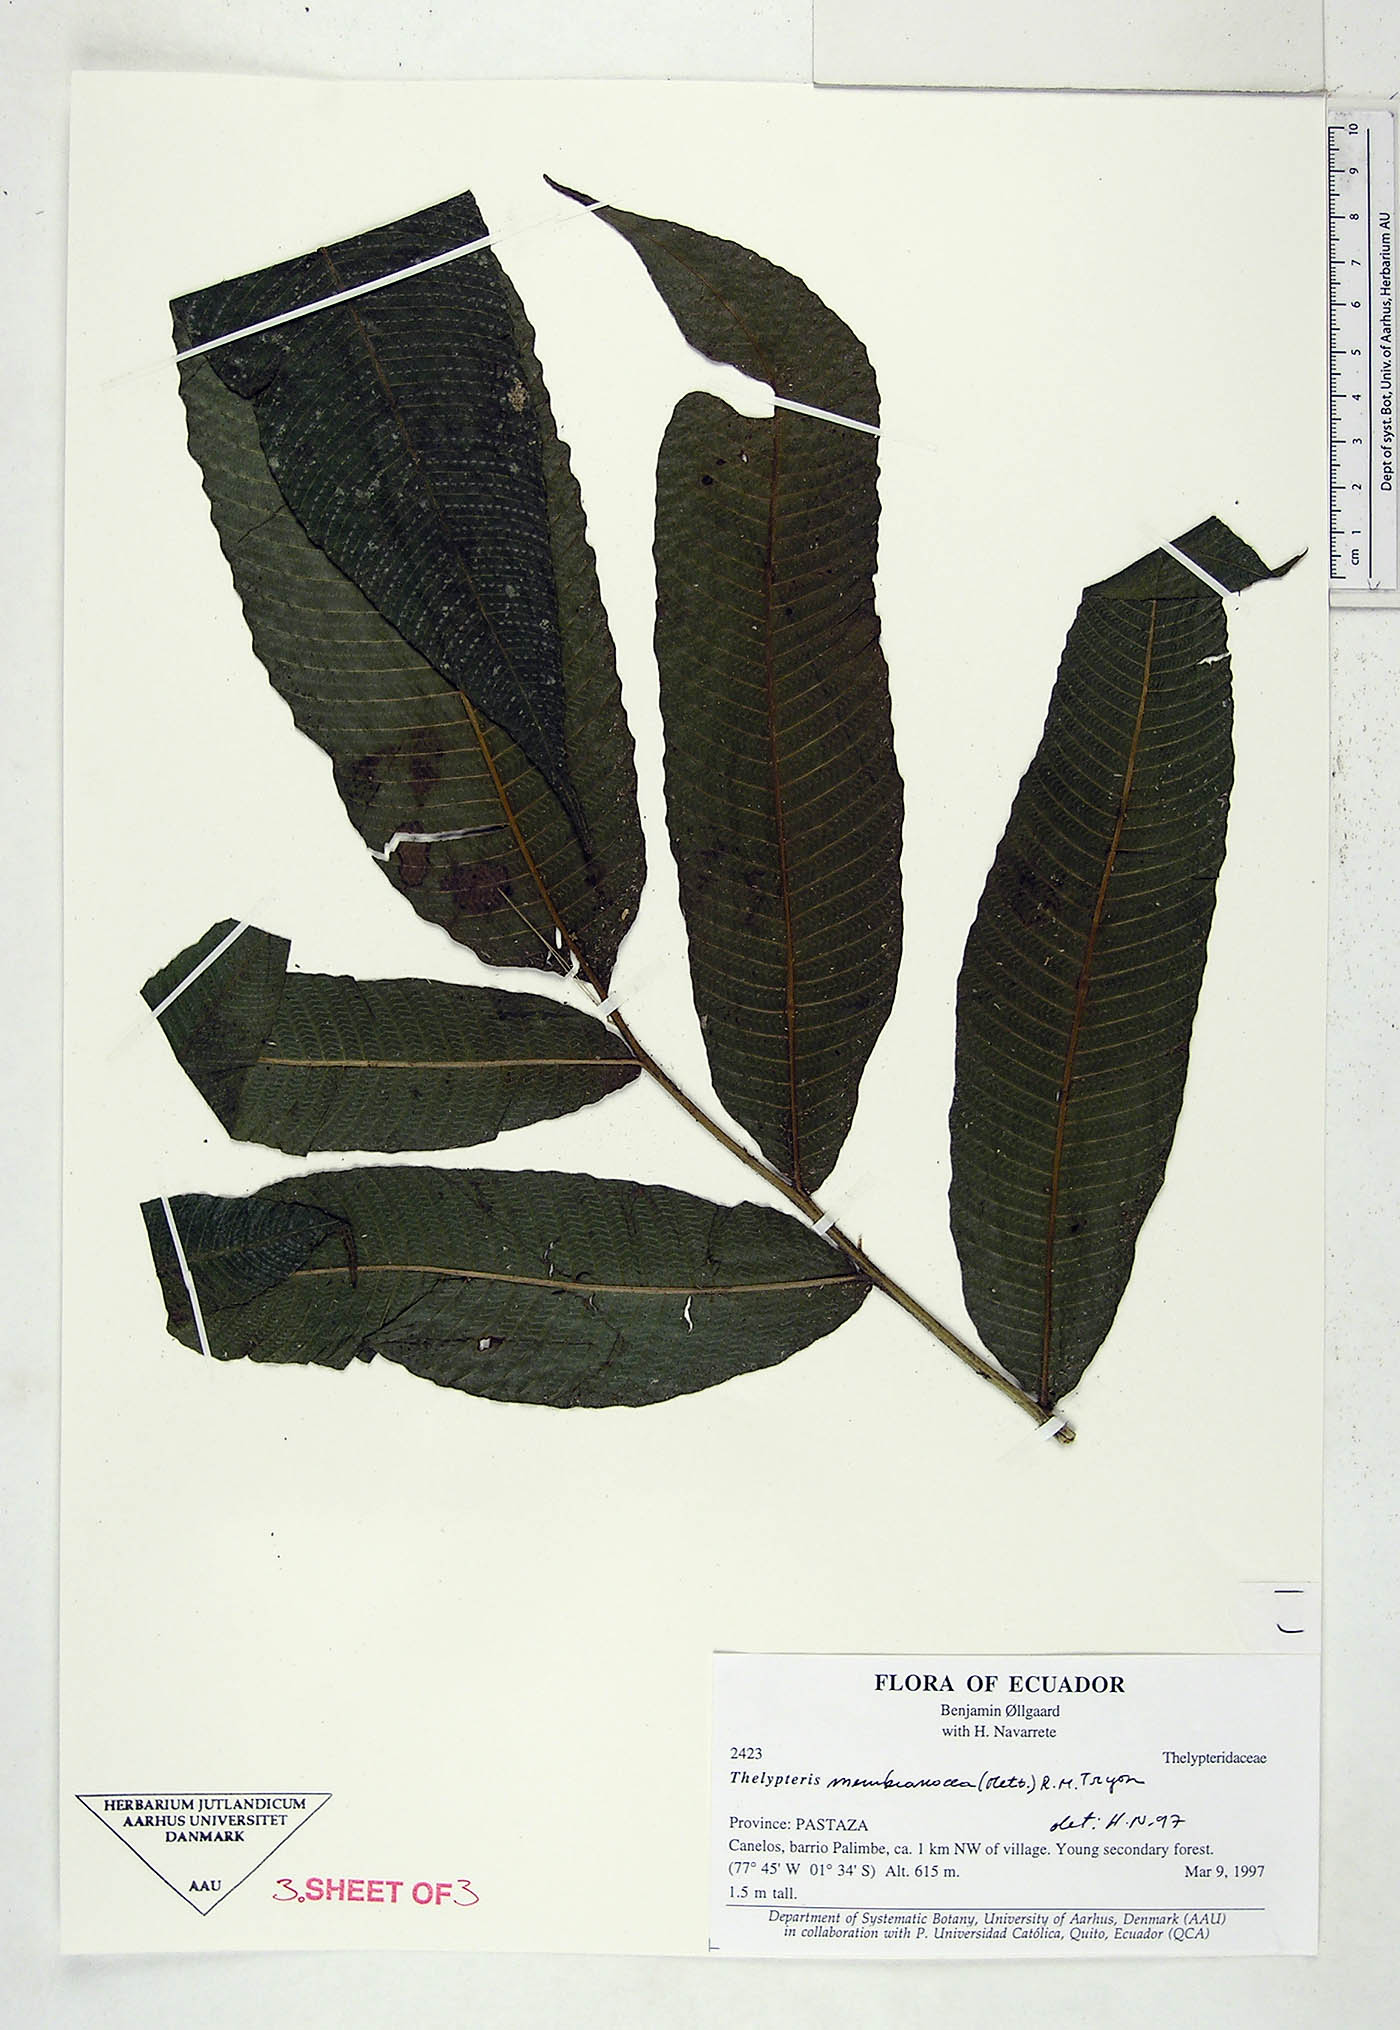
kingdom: Plantae
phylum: Tracheophyta
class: Polypodiopsida
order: Polypodiales
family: Thelypteridaceae
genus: Meniscium
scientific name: Meniscium membranaceum
